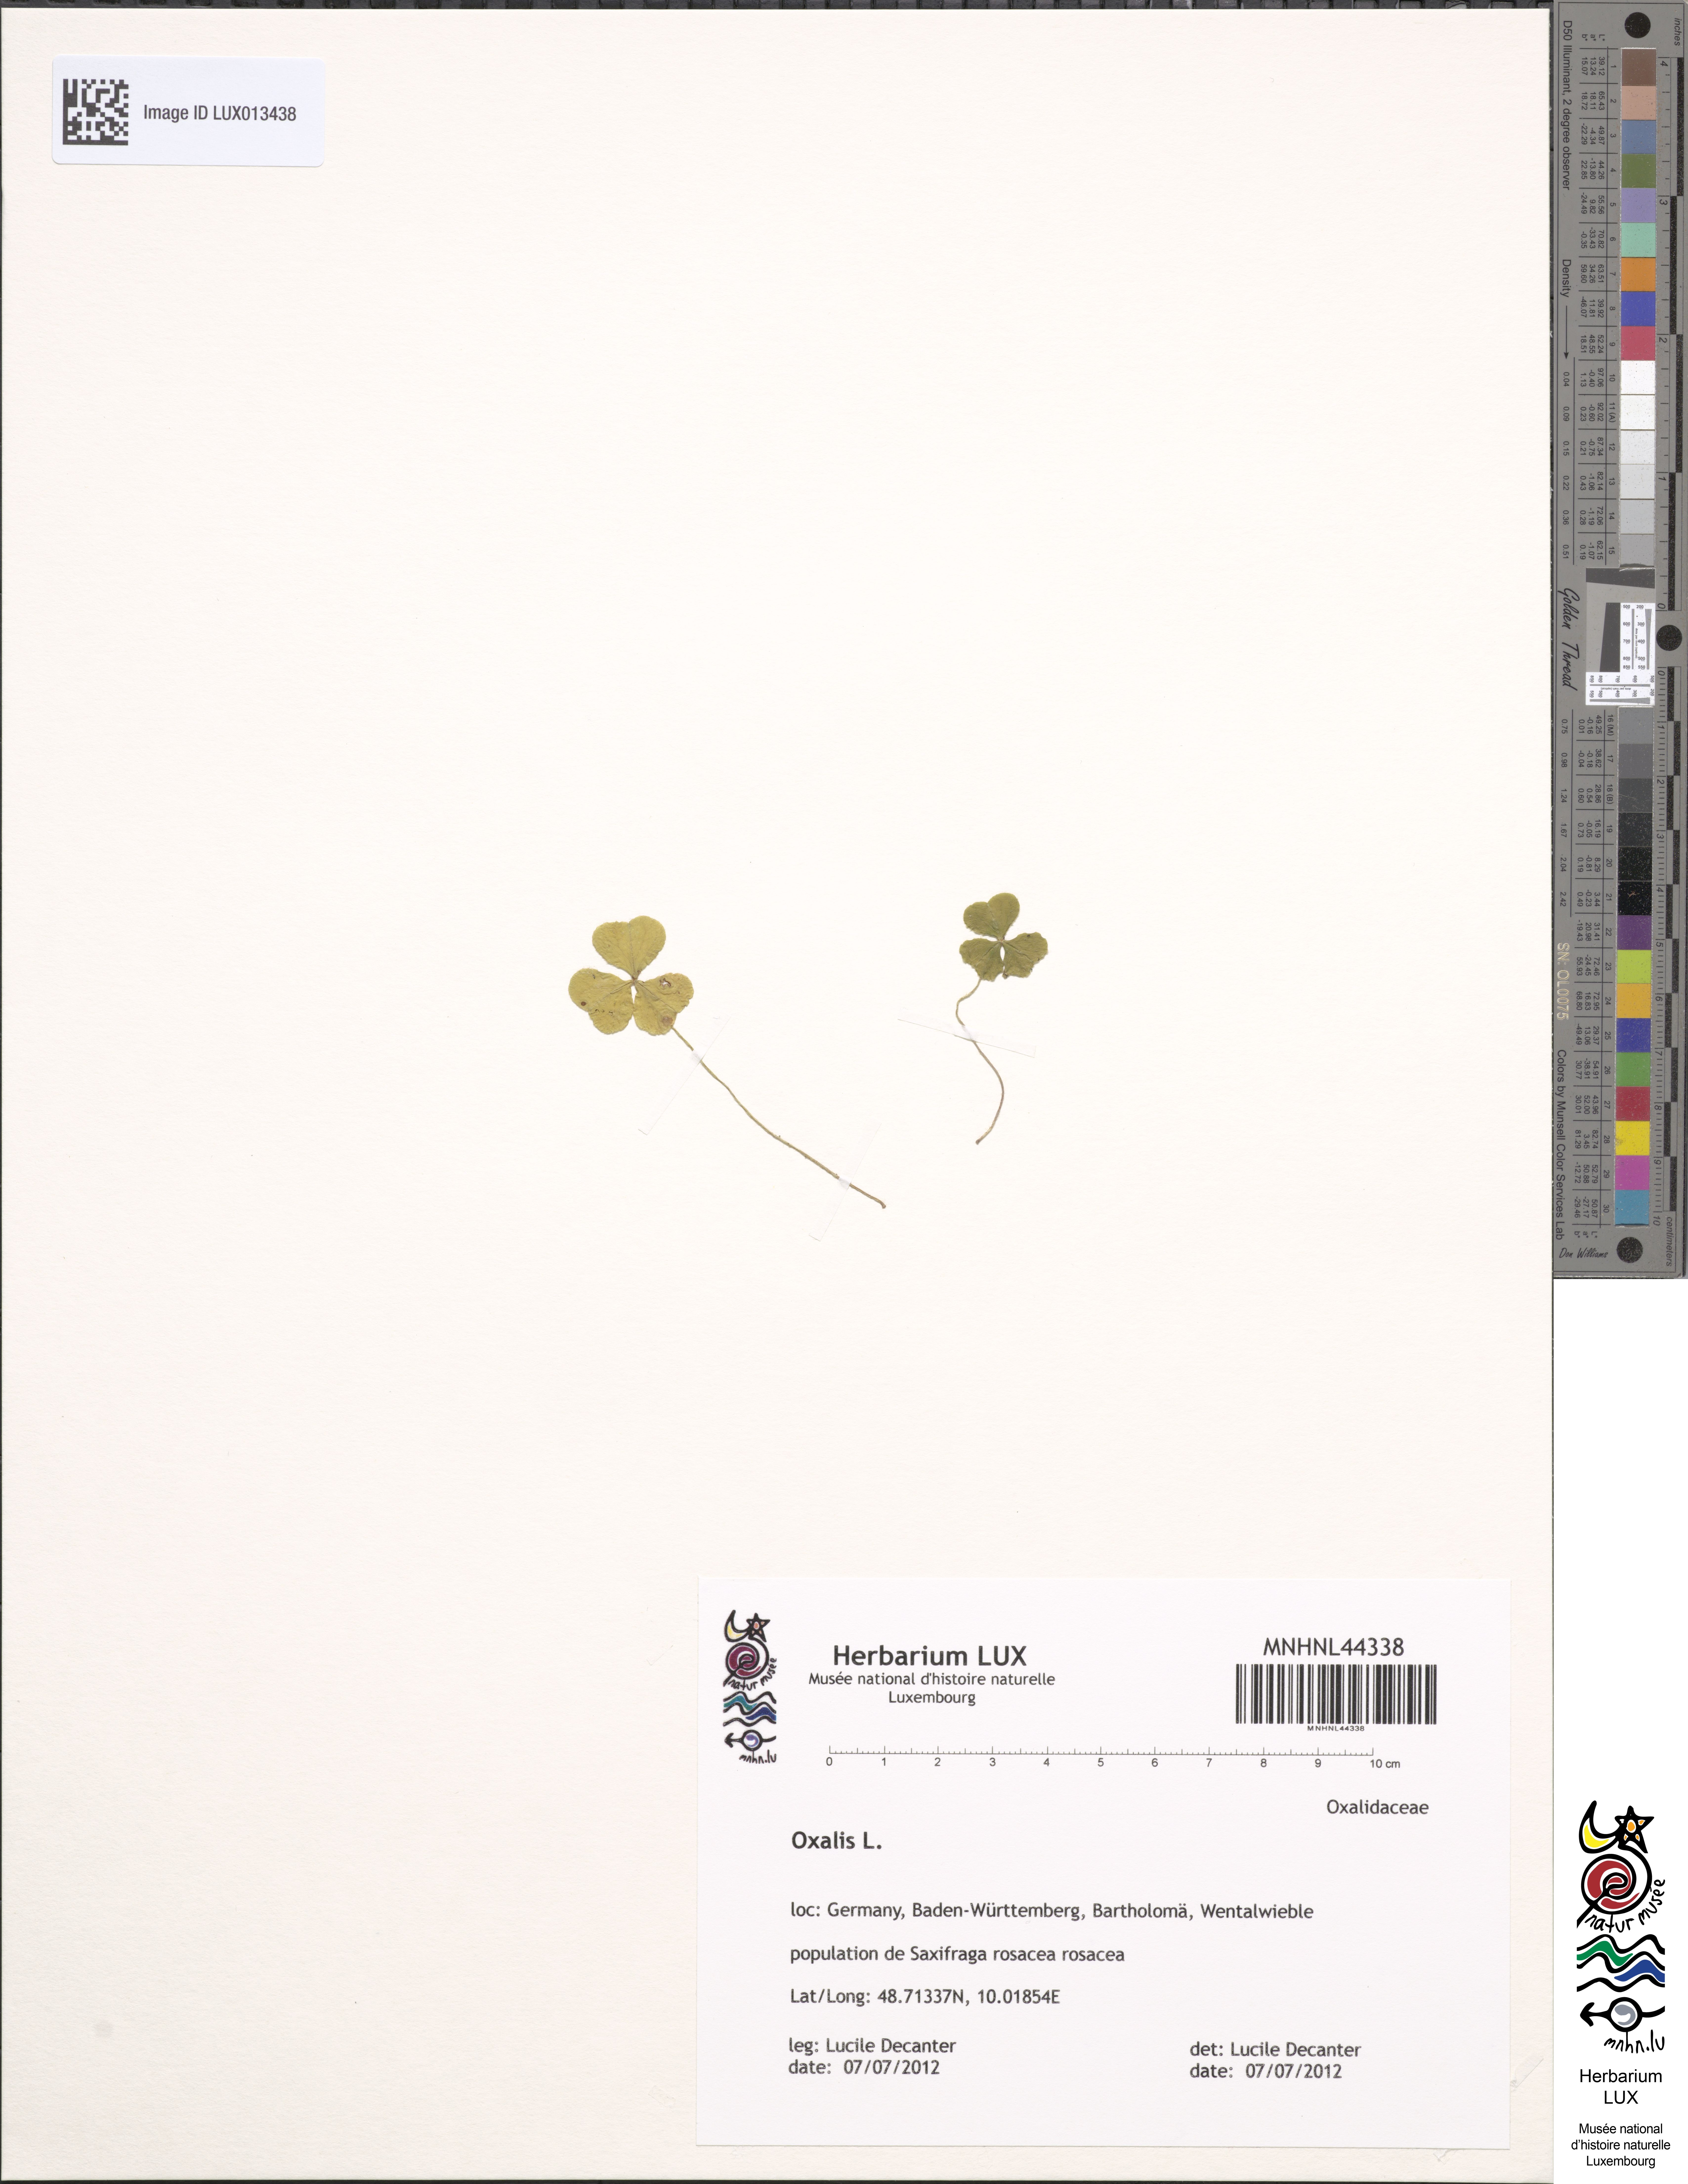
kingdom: Plantae
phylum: Tracheophyta
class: Magnoliopsida
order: Oxalidales
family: Oxalidaceae
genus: Oxalis
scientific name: Oxalis
